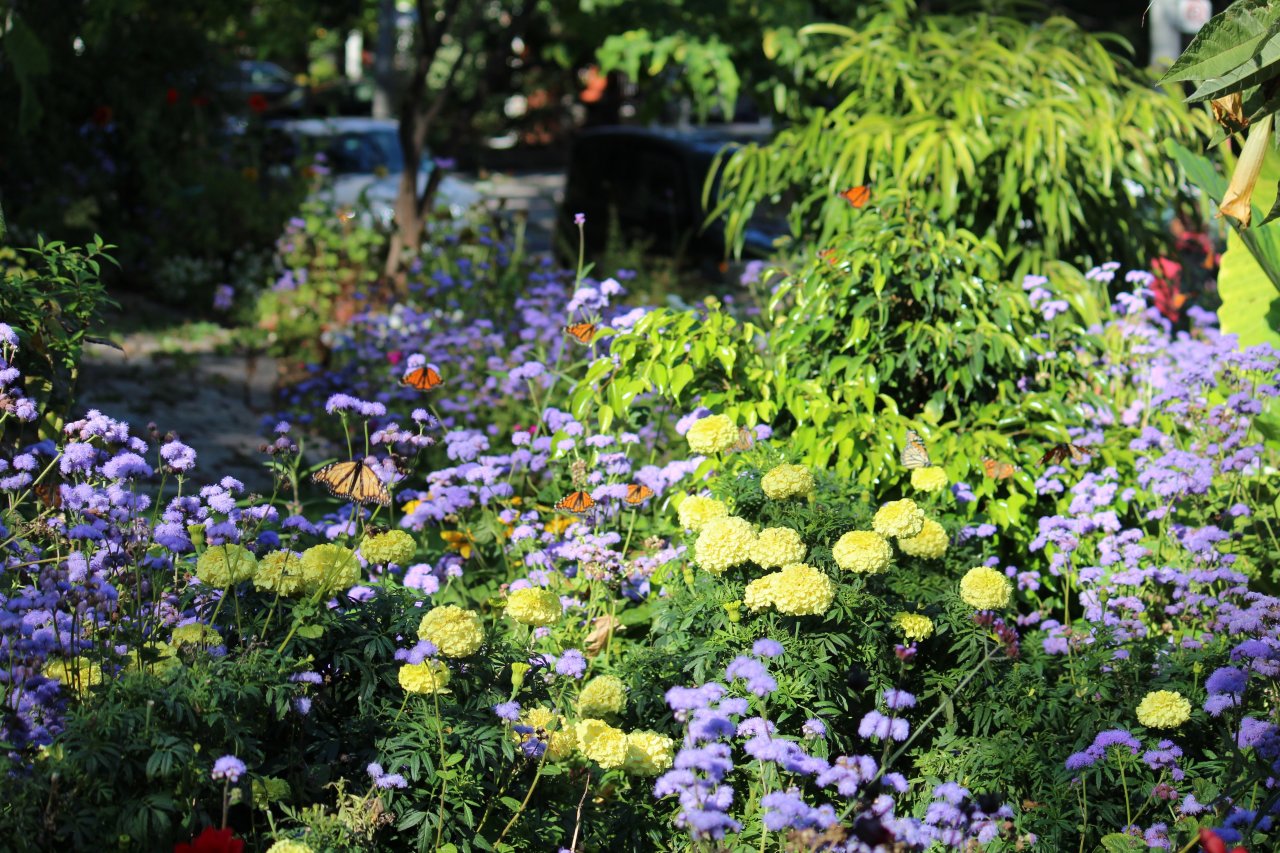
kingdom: Animalia
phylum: Arthropoda
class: Insecta
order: Lepidoptera
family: Nymphalidae
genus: Danaus
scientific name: Danaus plexippus
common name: Monarch
